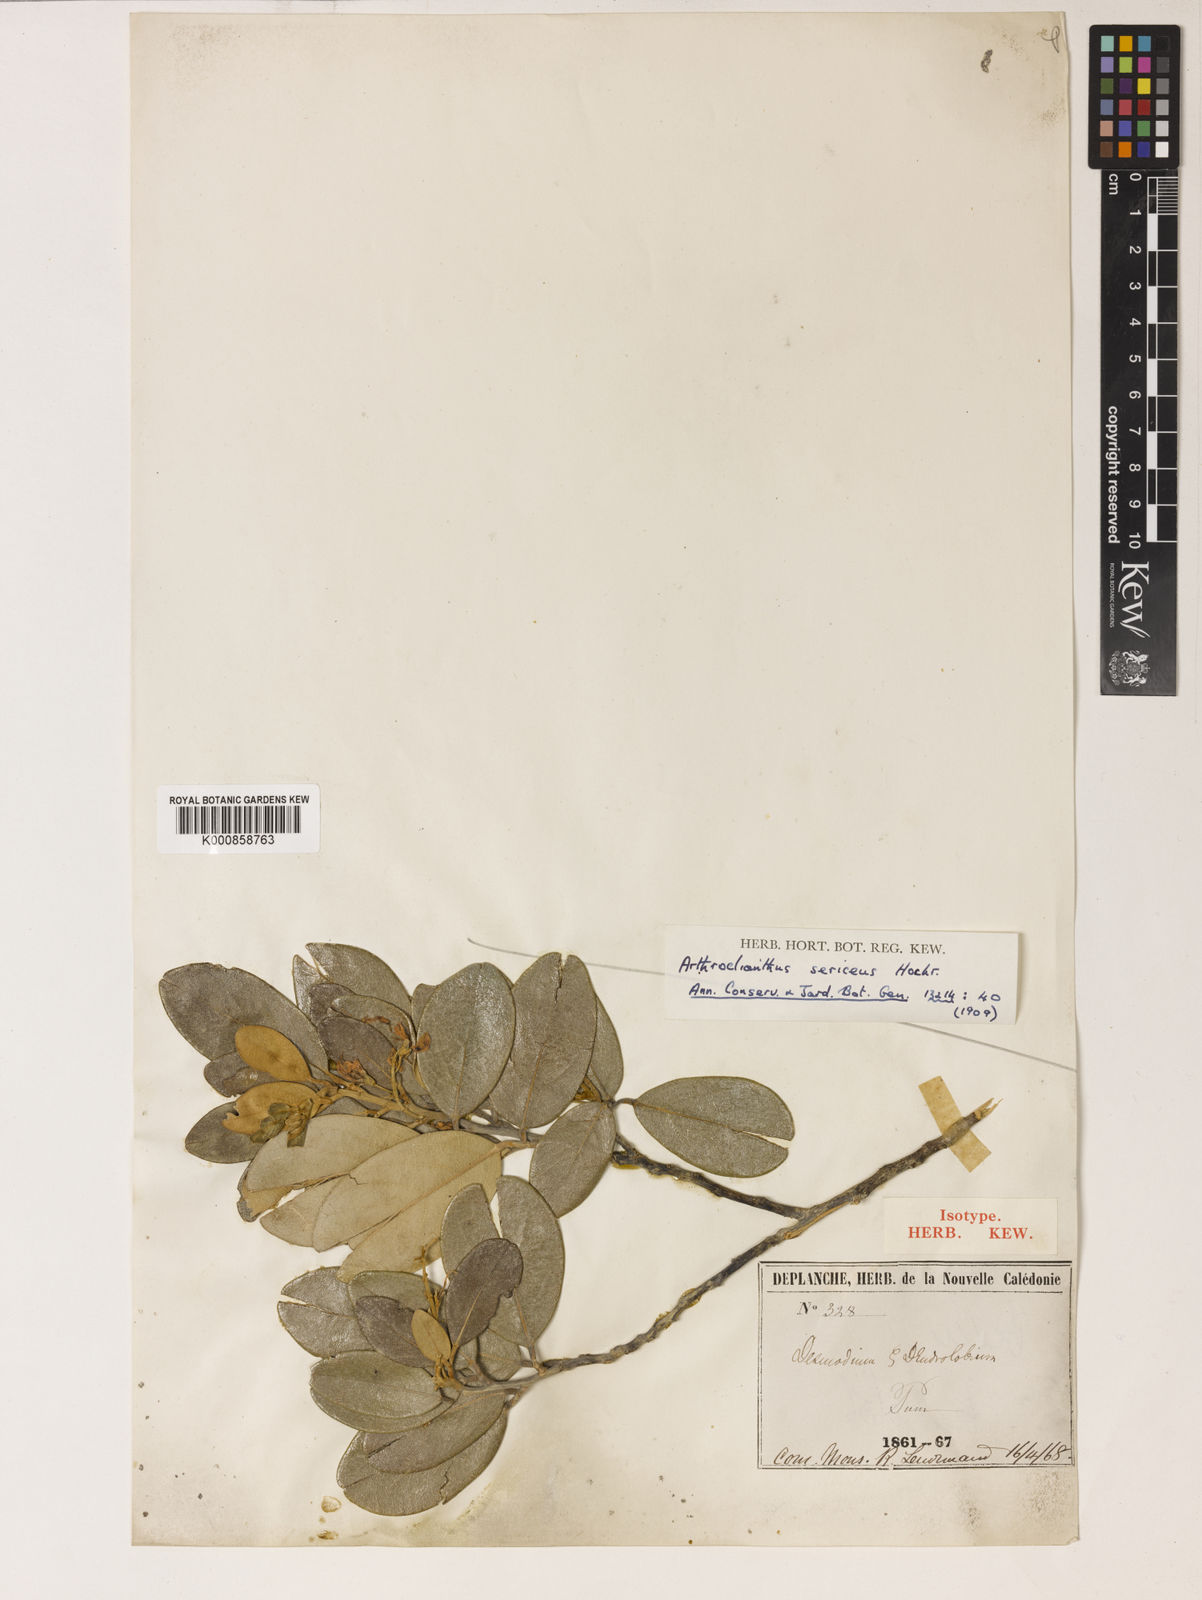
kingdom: Plantae
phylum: Tracheophyta
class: Magnoliopsida
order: Fabales
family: Fabaceae
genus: Nephrodesmus
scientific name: Nephrodesmus sericeus
